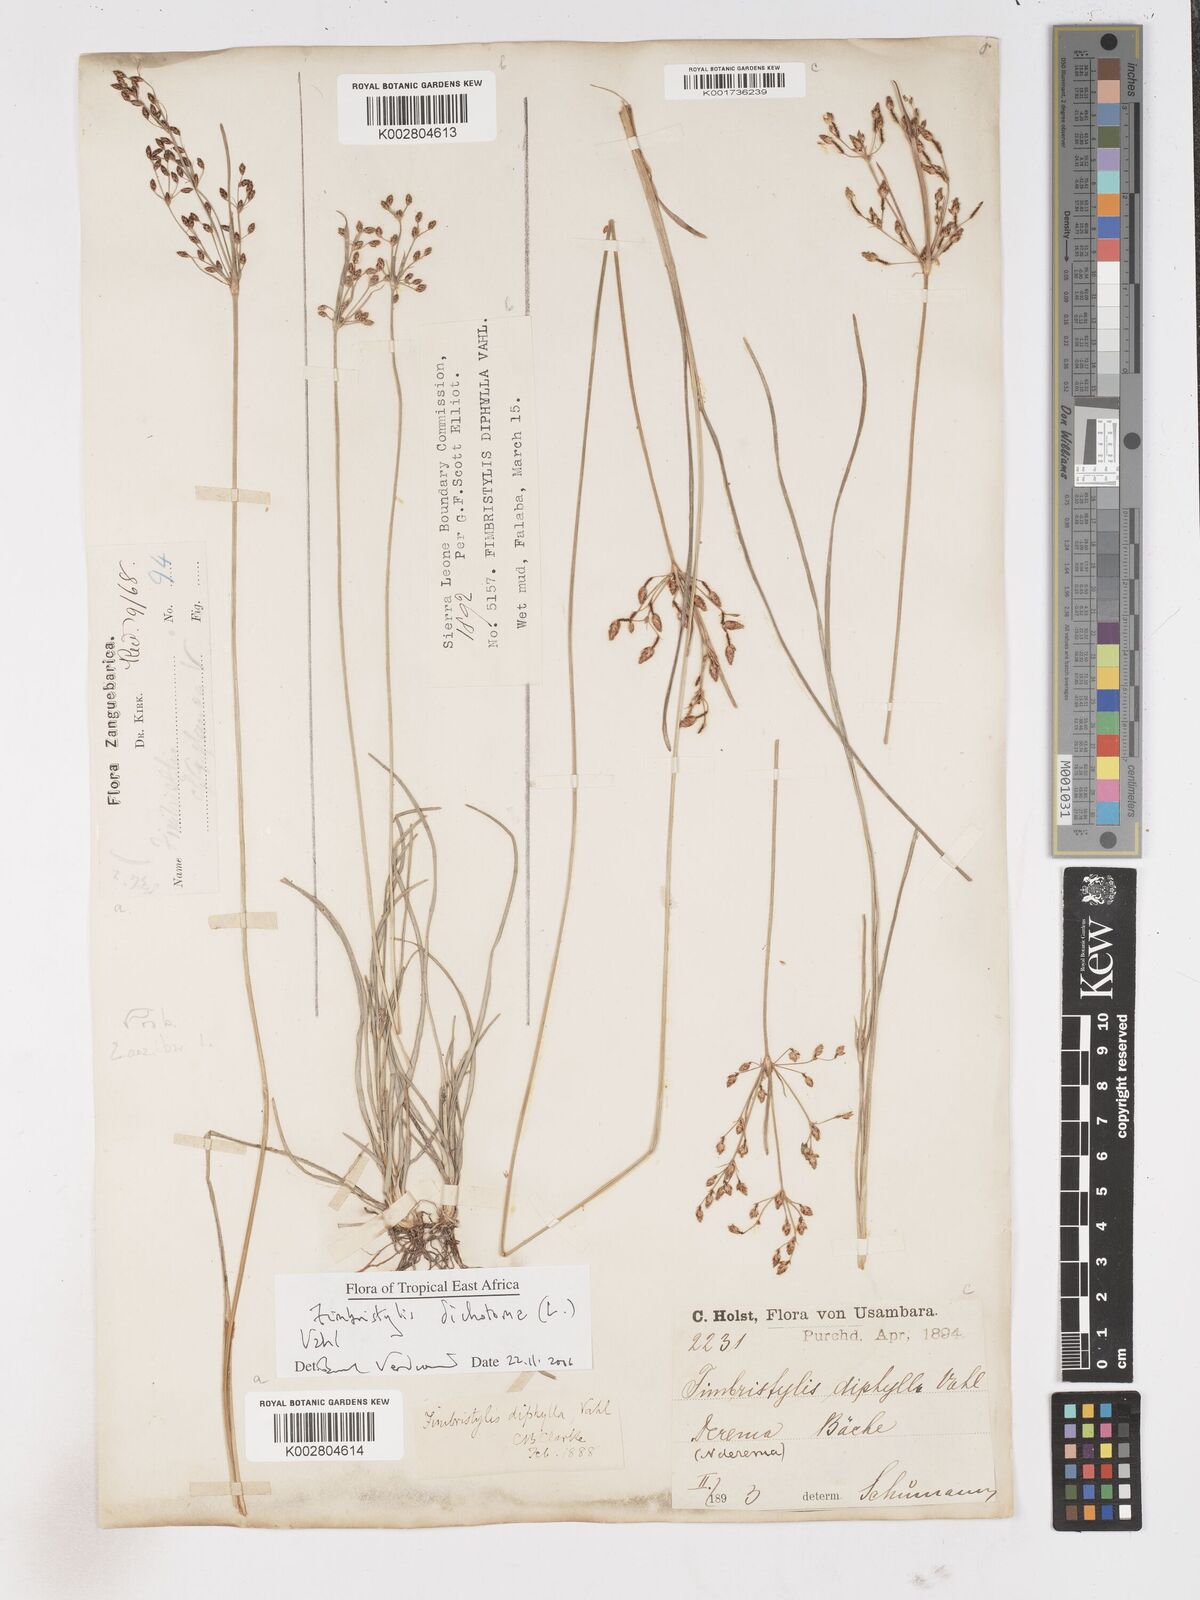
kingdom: Plantae
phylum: Tracheophyta
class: Liliopsida
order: Poales
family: Cyperaceae
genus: Fimbristylis
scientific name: Fimbristylis dichotoma
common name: Forked fimbry
